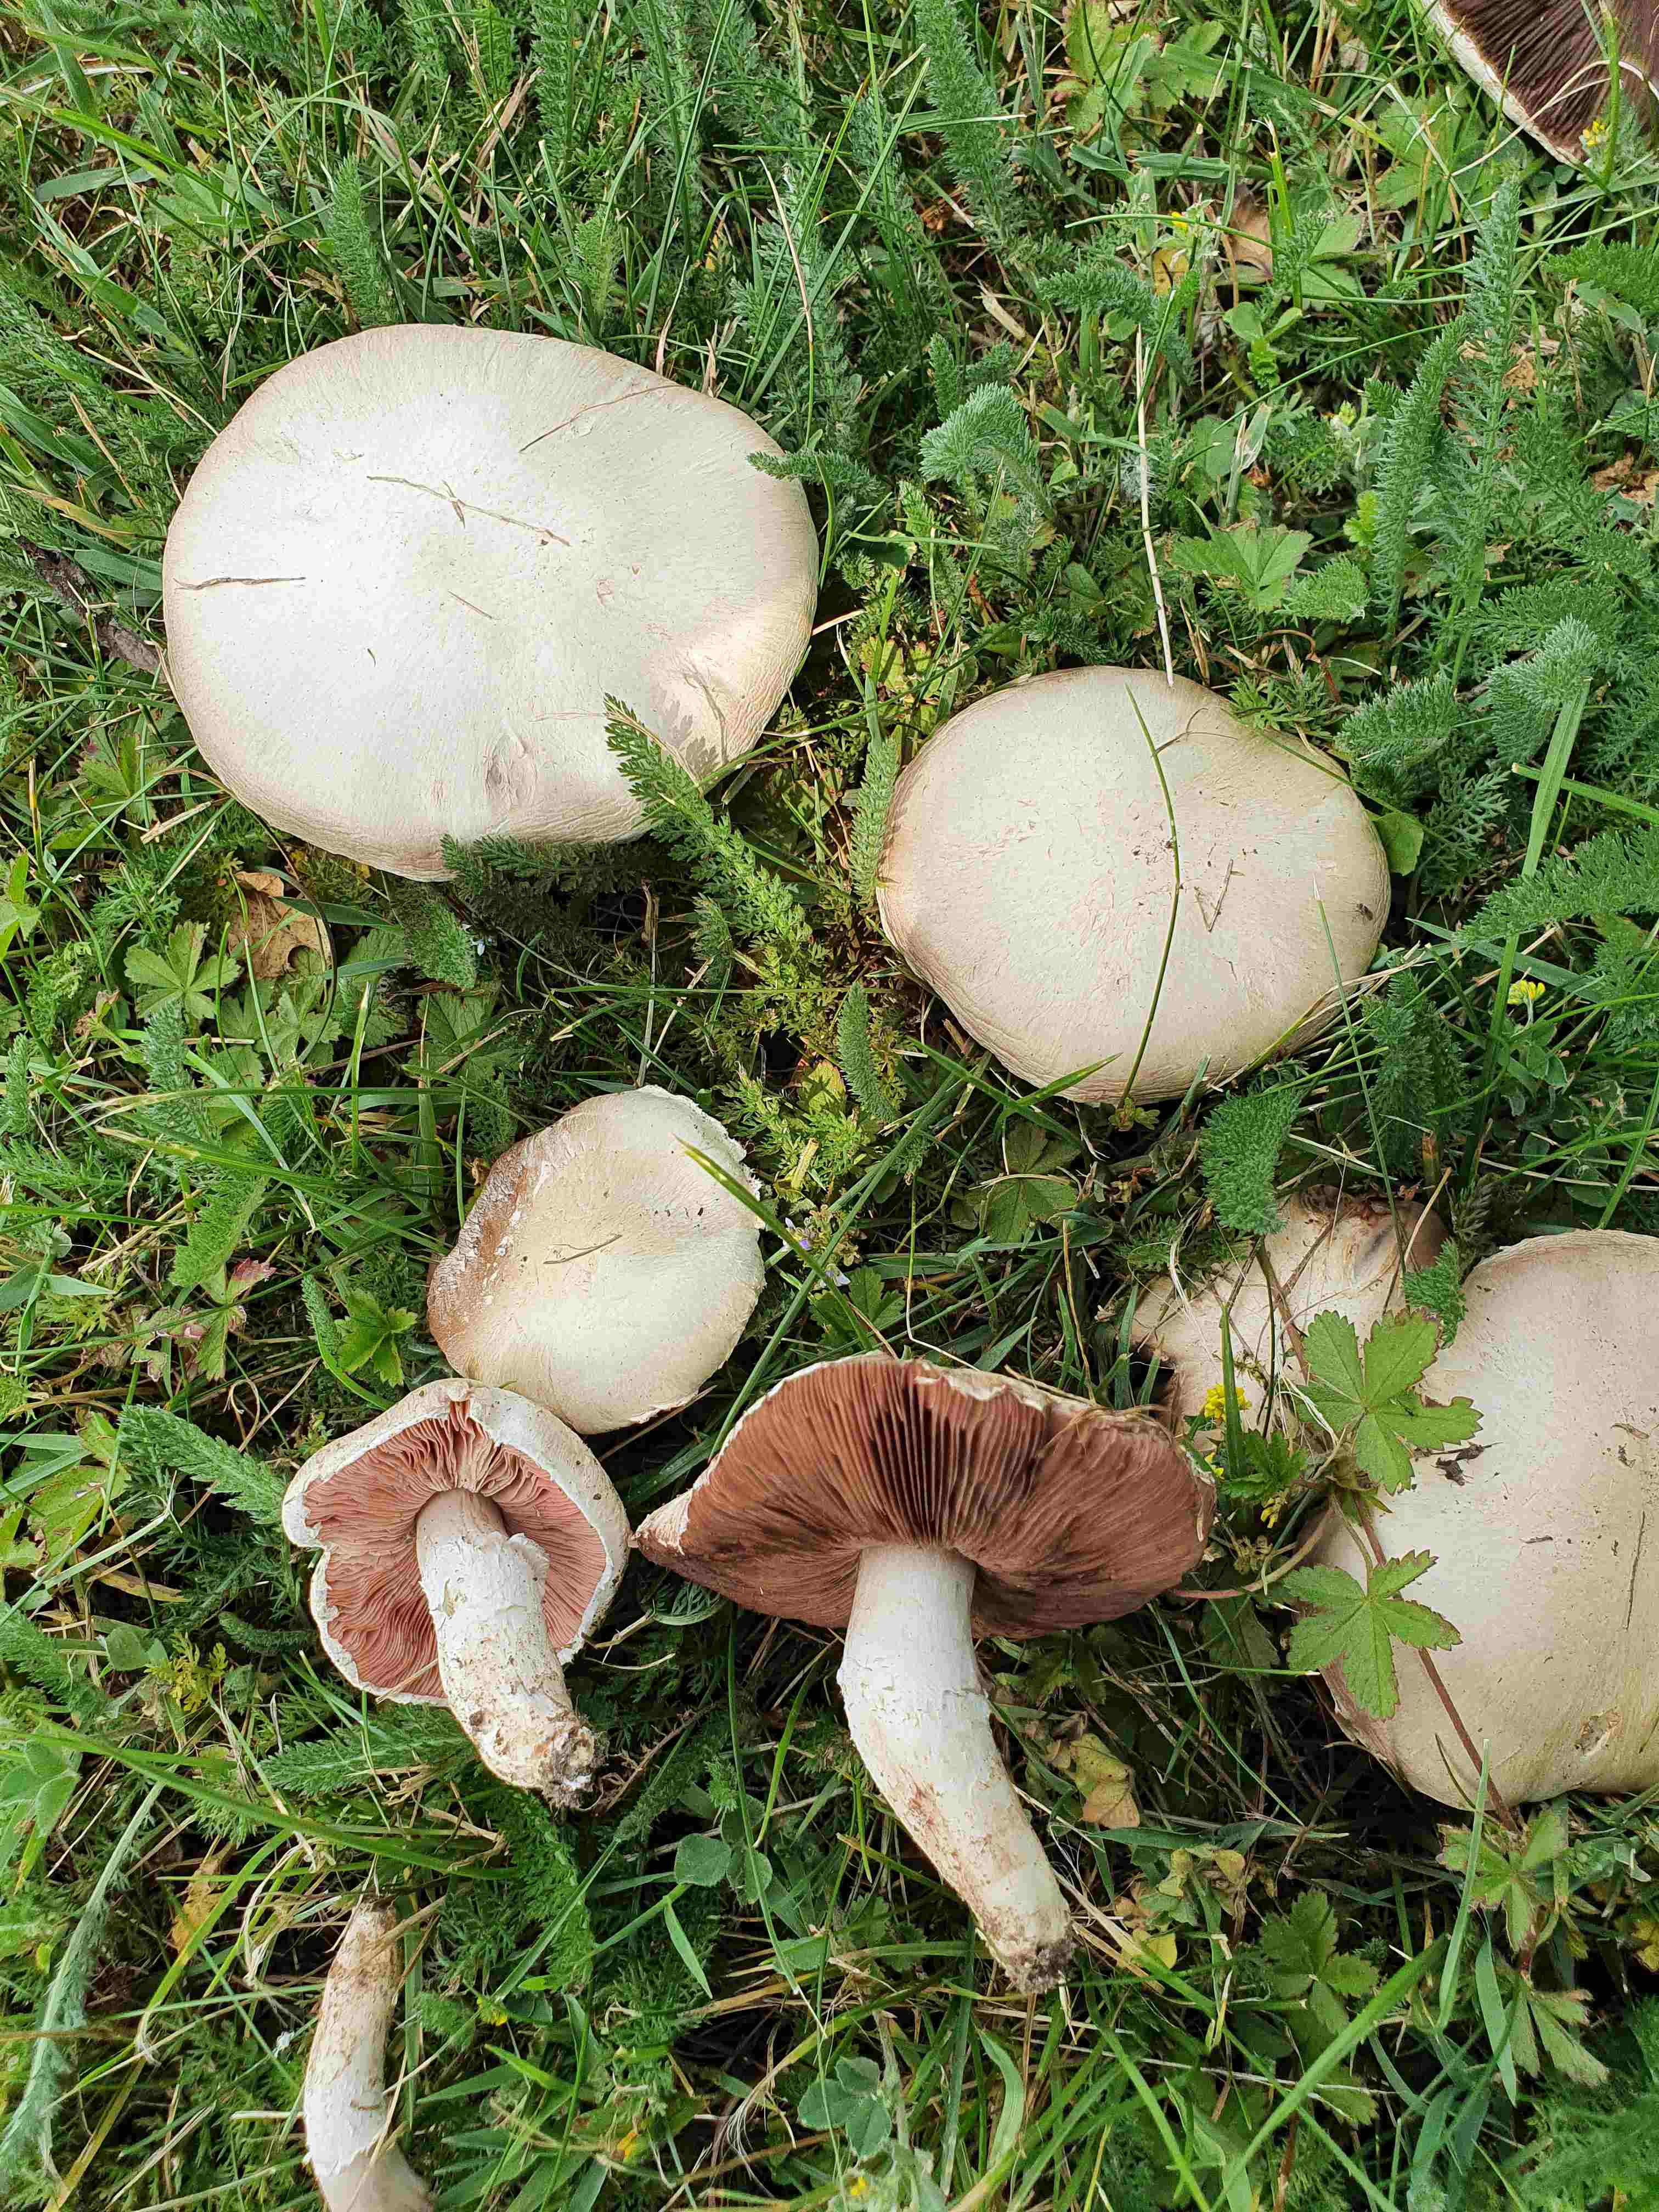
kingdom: Fungi
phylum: Basidiomycota
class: Agaricomycetes
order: Agaricales
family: Agaricaceae
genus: Agaricus
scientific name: Agaricus campestris
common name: mark-champignon
